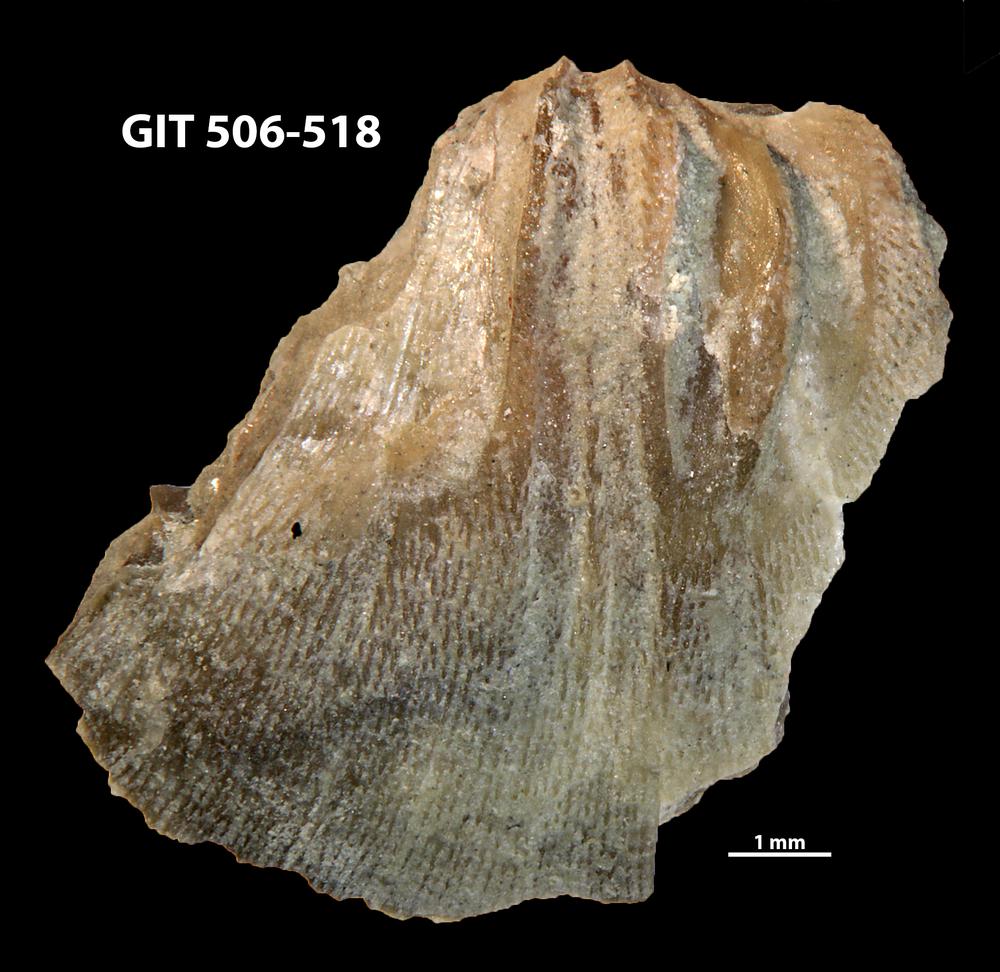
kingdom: Animalia
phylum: Brachiopoda
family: Oldhaminidae
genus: Eoplectodonta
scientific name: Eoplectodonta duvalii
